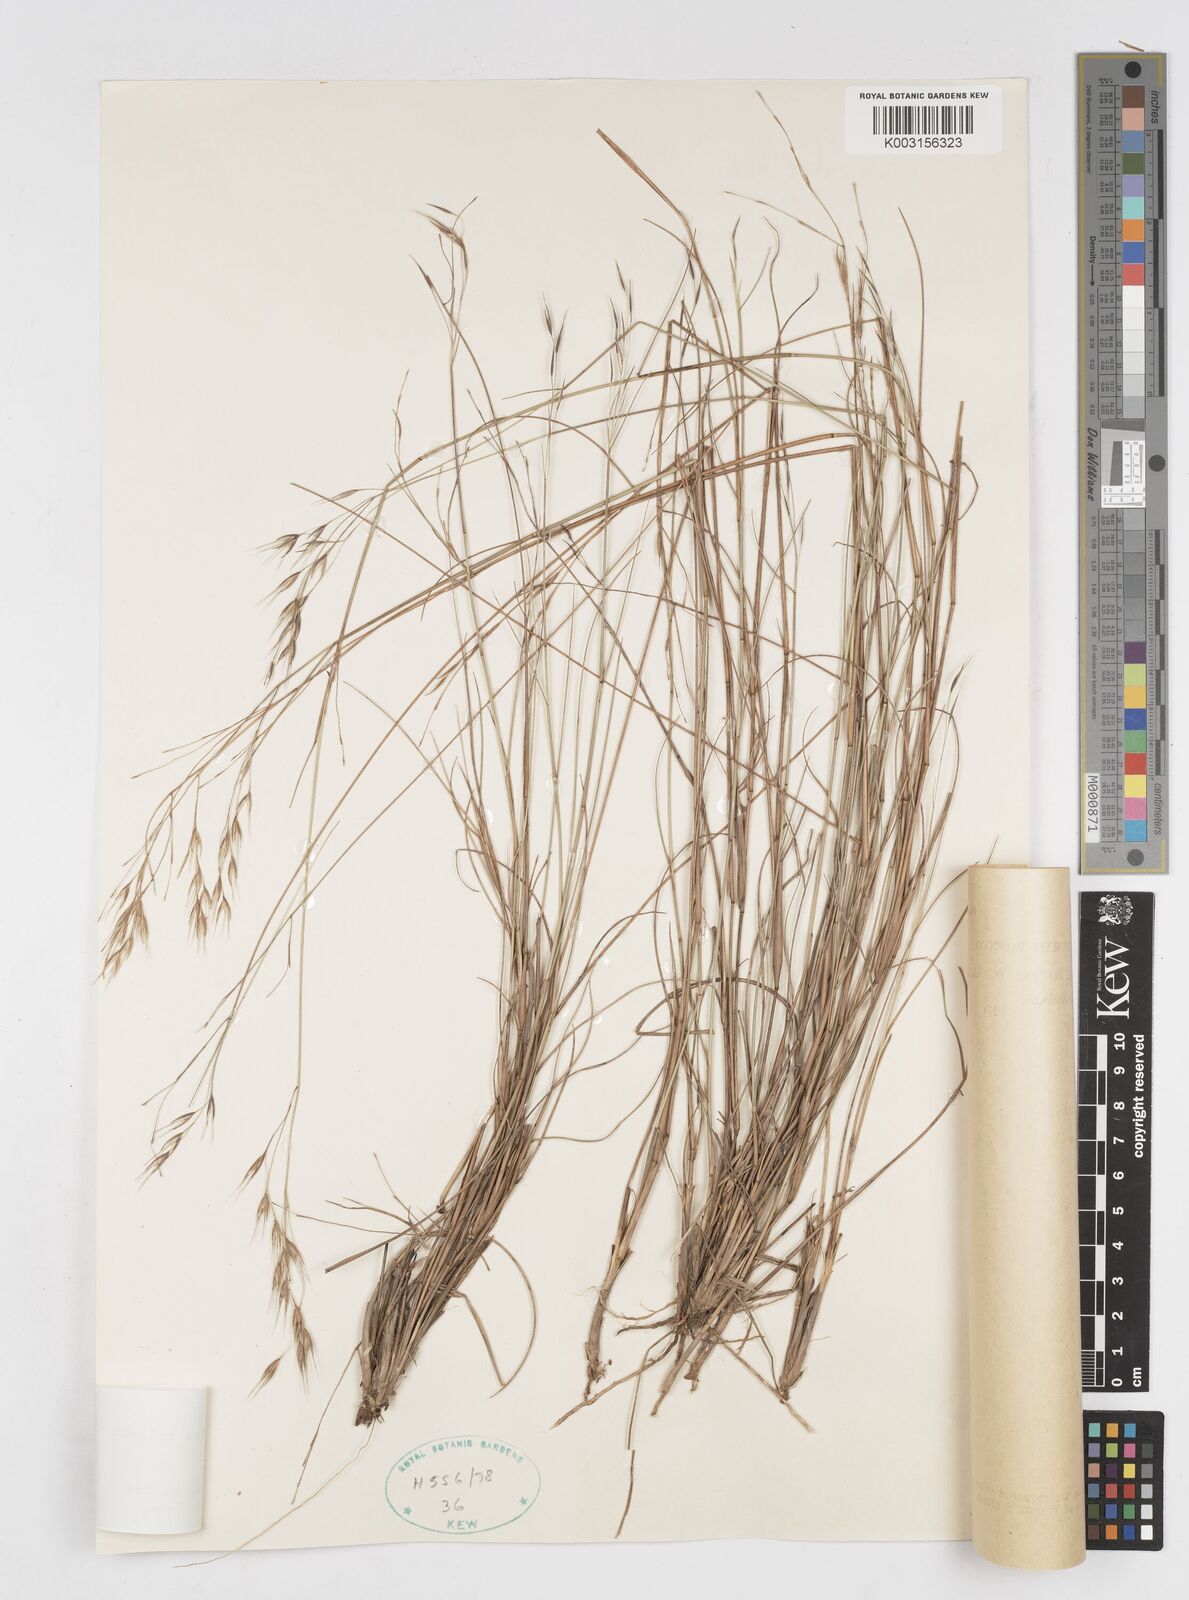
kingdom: Plantae
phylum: Tracheophyta
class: Liliopsida
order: Poales
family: Poaceae
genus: Eriachne
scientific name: Eriachne triseta
